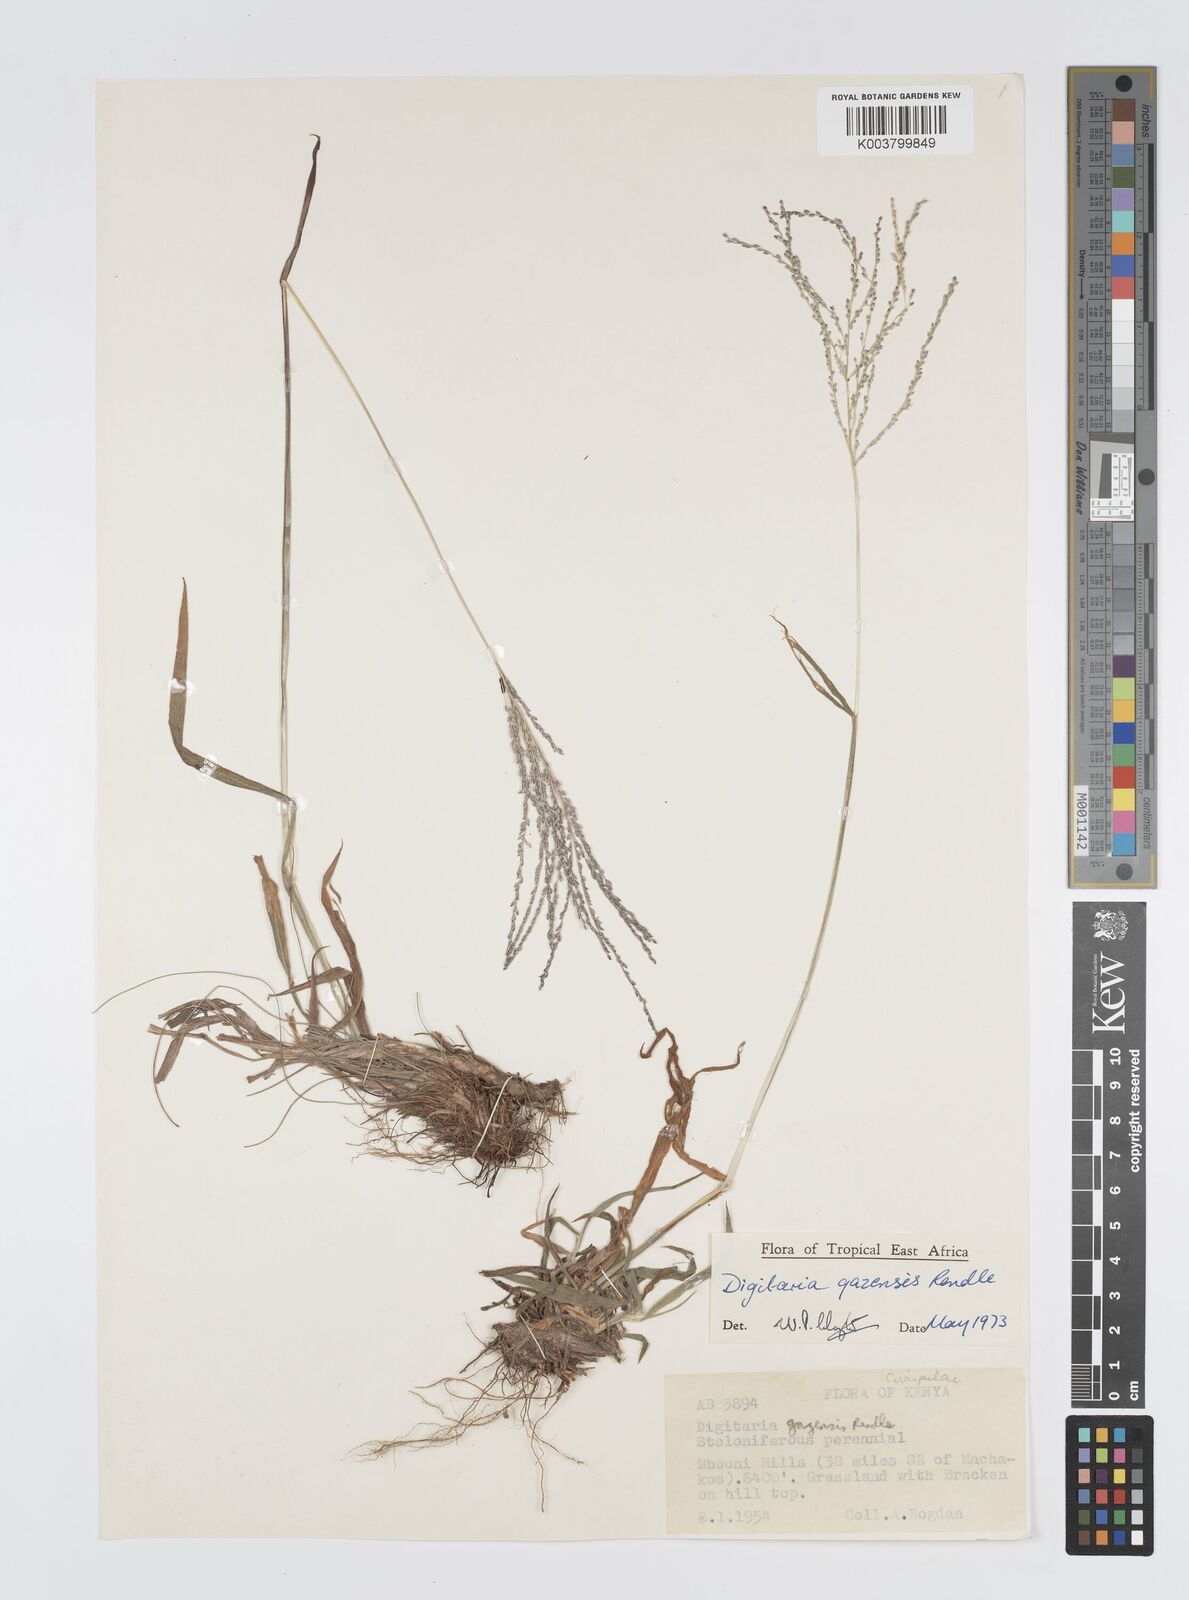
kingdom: Plantae
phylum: Tracheophyta
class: Liliopsida
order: Poales
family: Poaceae
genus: Digitaria
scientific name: Digitaria gazensis
